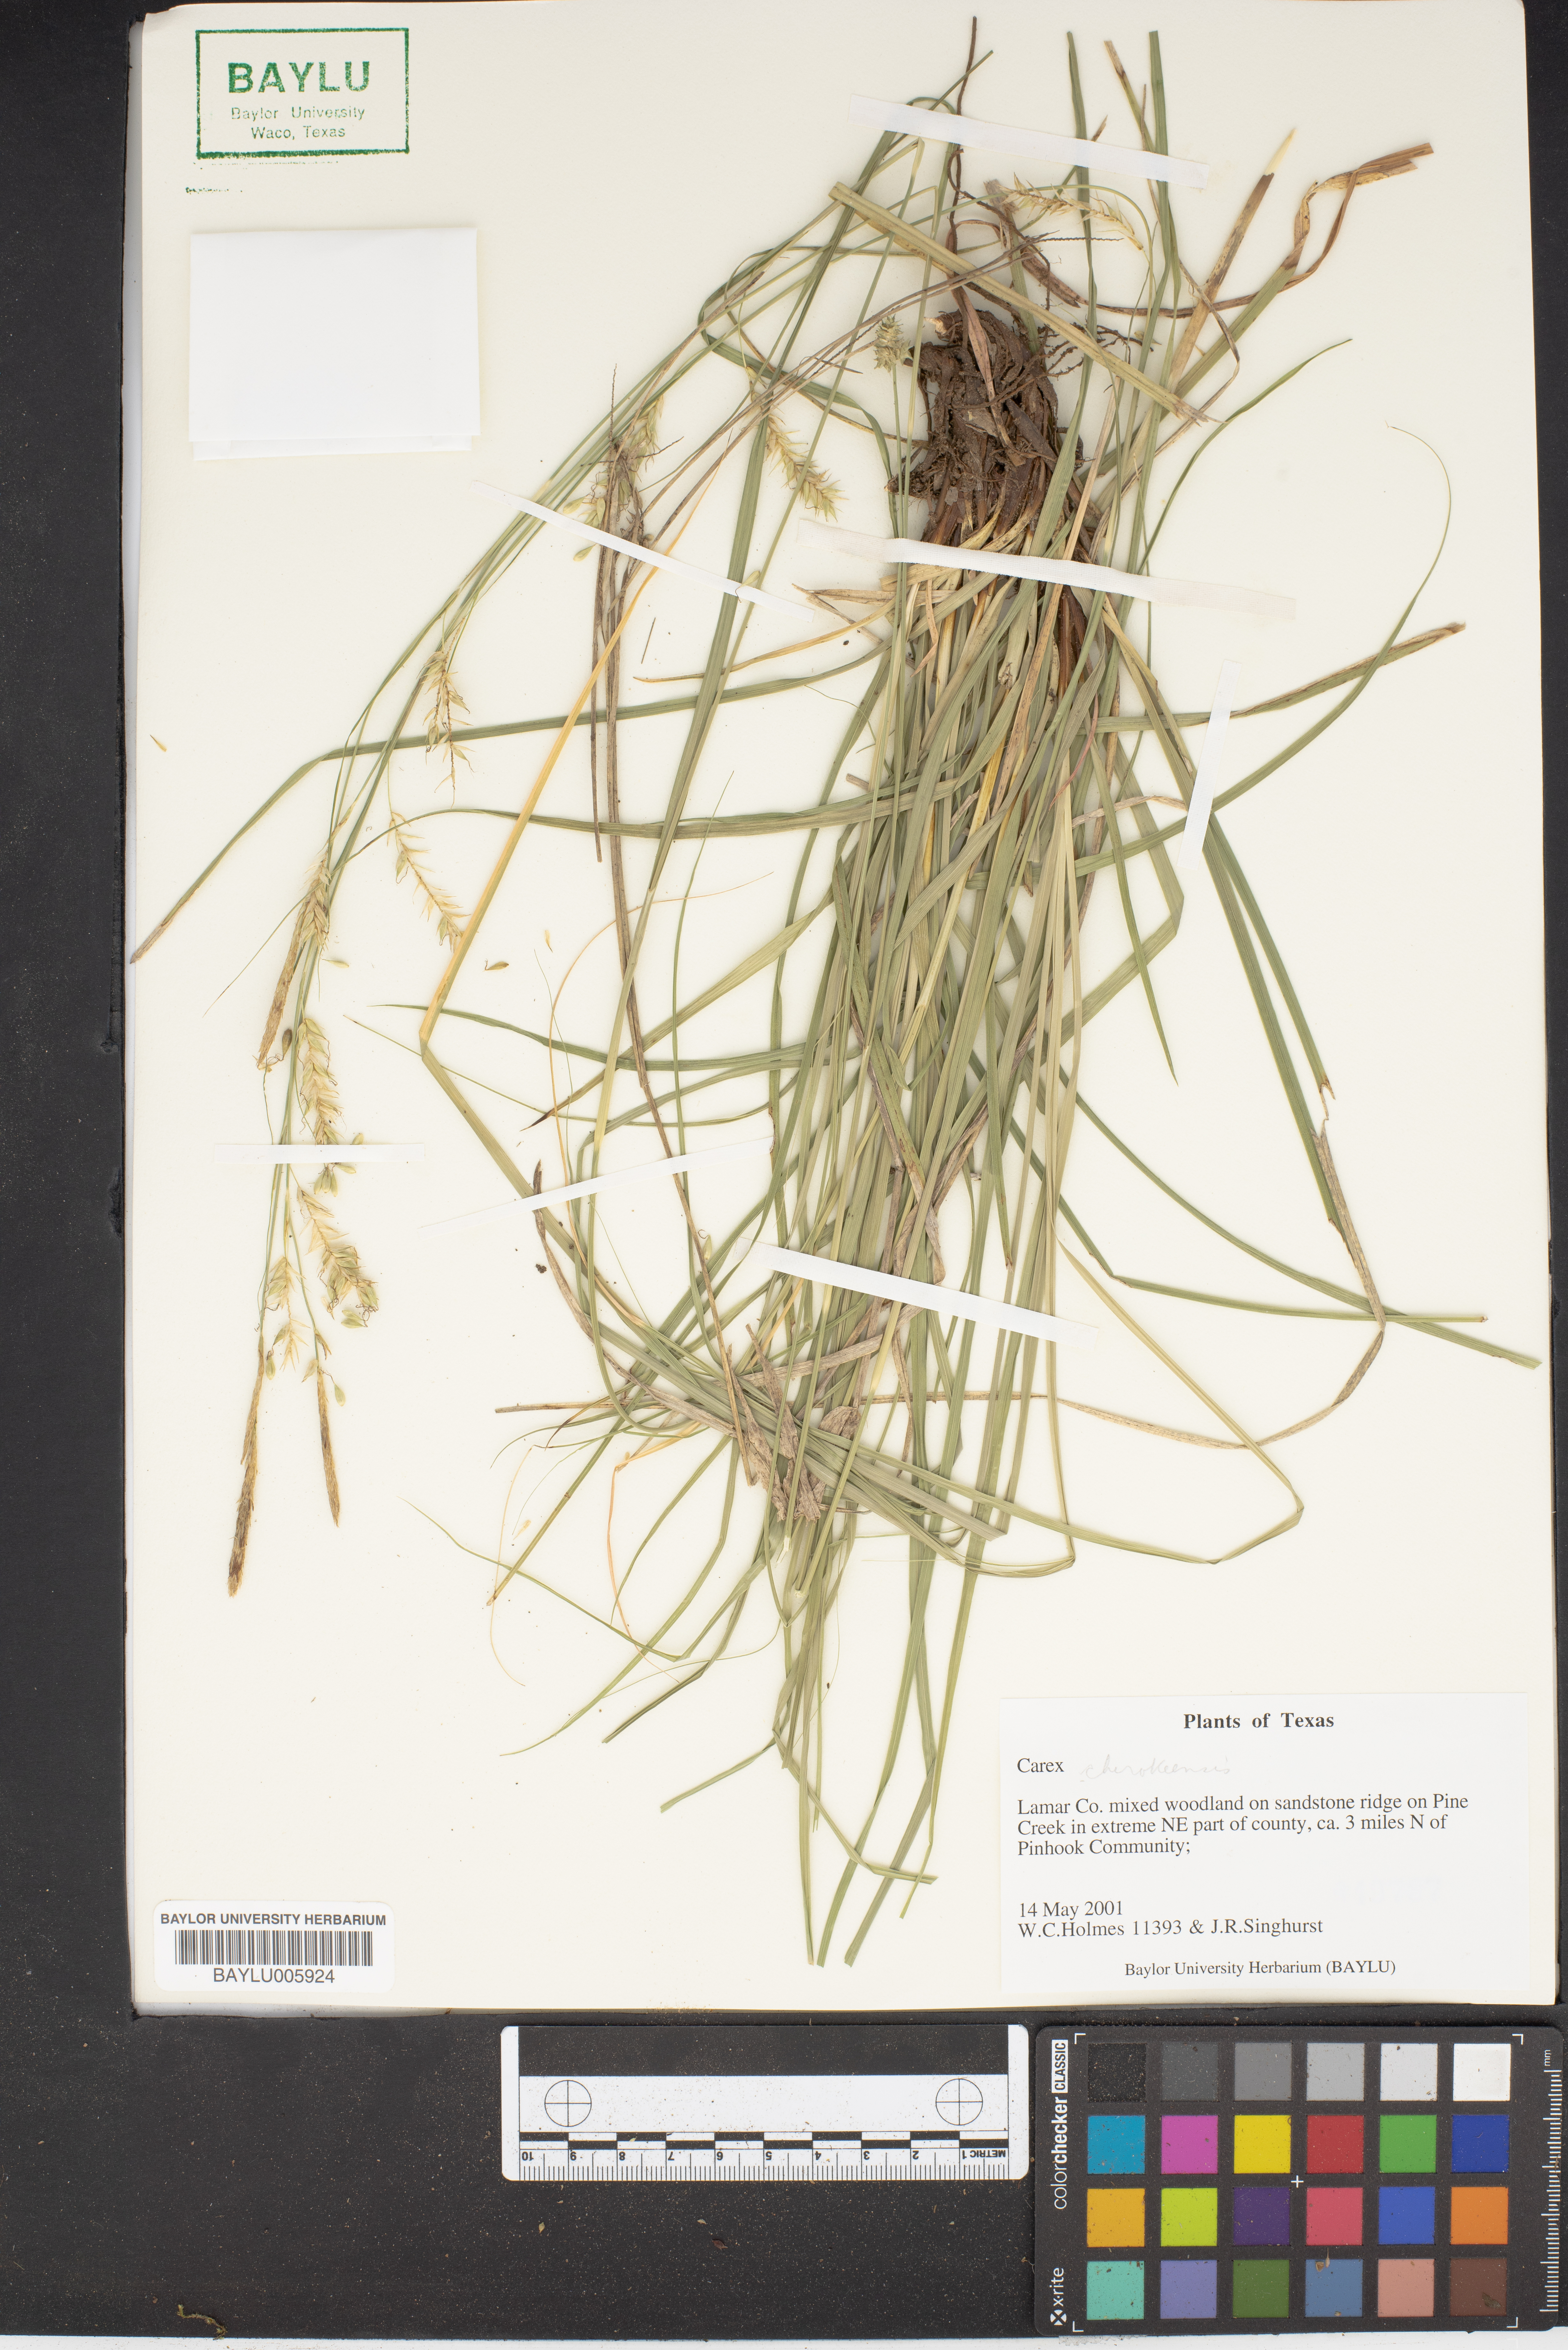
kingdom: Plantae
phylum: Tracheophyta
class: Liliopsida
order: Poales
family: Cyperaceae
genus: Carex
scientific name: Carex
